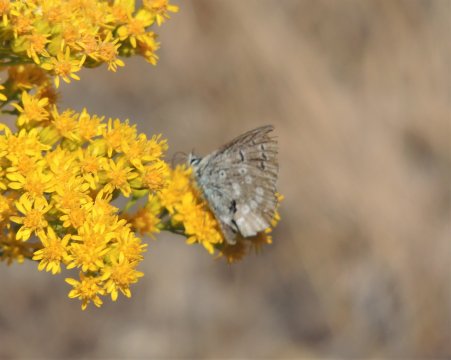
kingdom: Animalia
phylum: Arthropoda
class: Insecta
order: Lepidoptera
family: Lycaenidae
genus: Satyrium
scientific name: Satyrium fuliginosa
